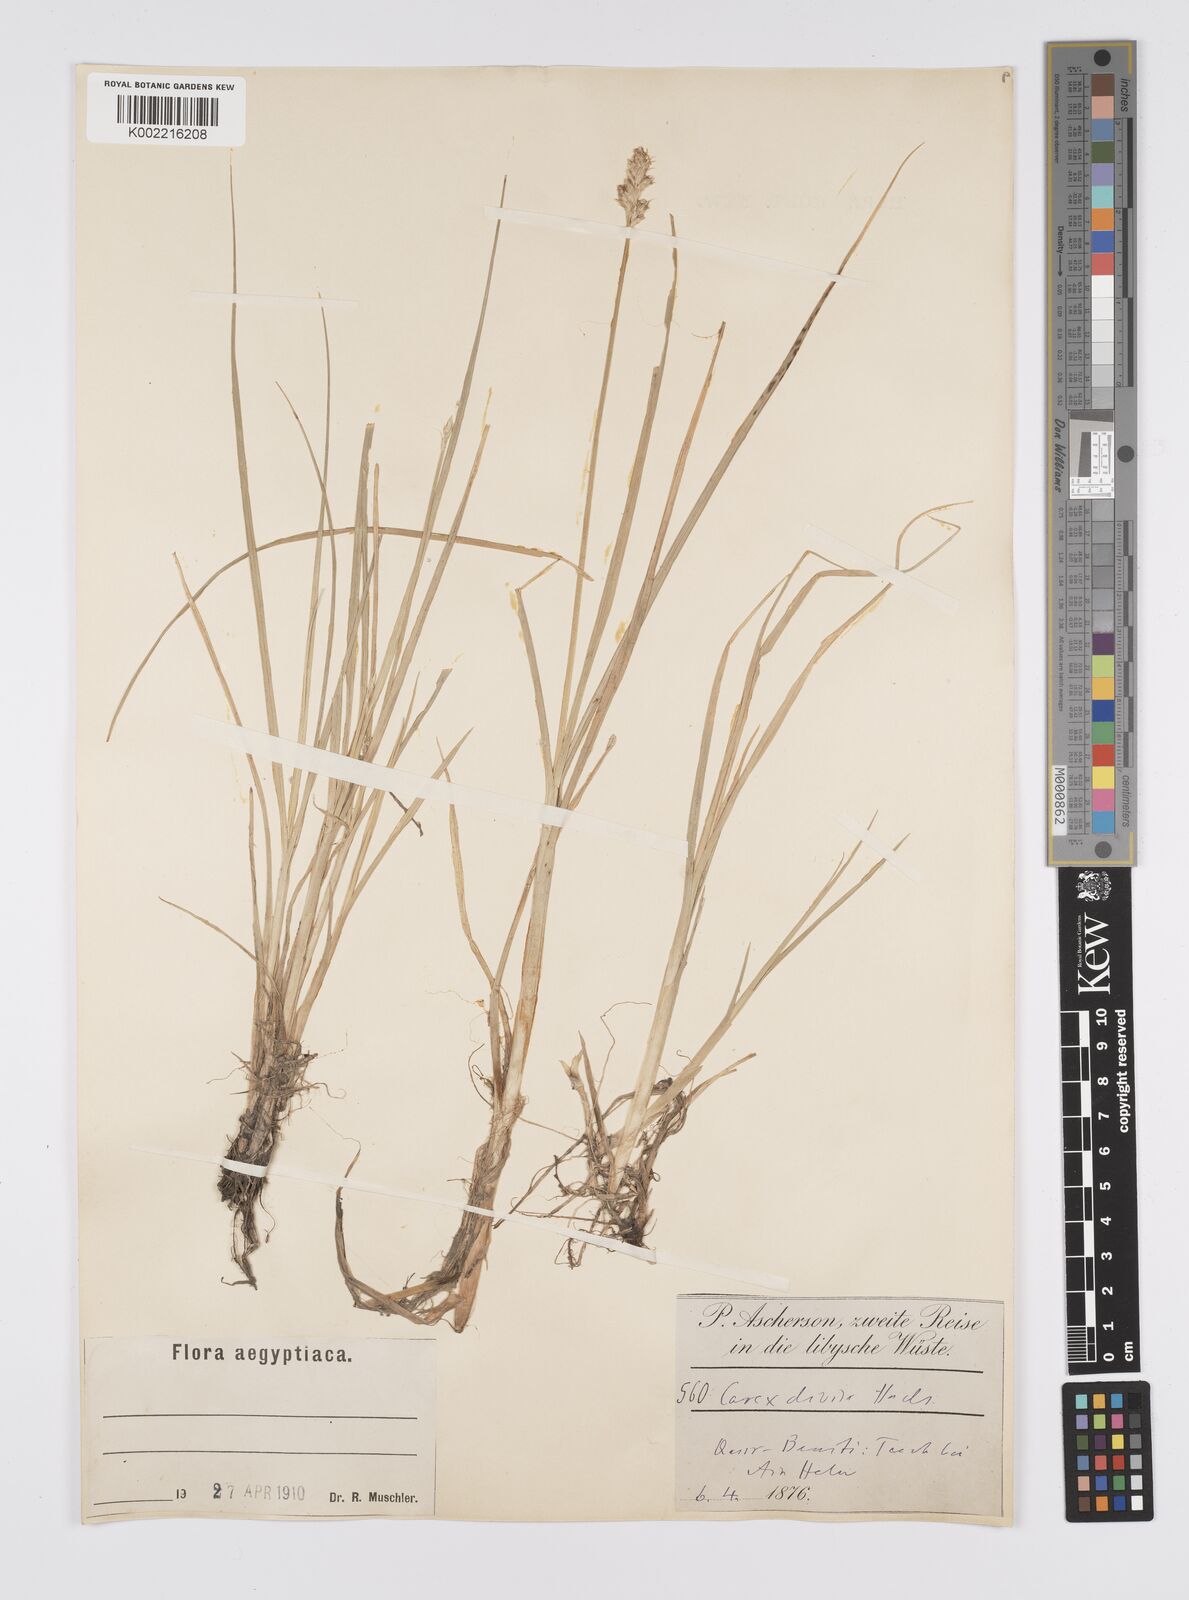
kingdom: Plantae
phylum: Tracheophyta
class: Liliopsida
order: Poales
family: Cyperaceae
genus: Carex
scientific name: Carex divisa
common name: Divided sedge
